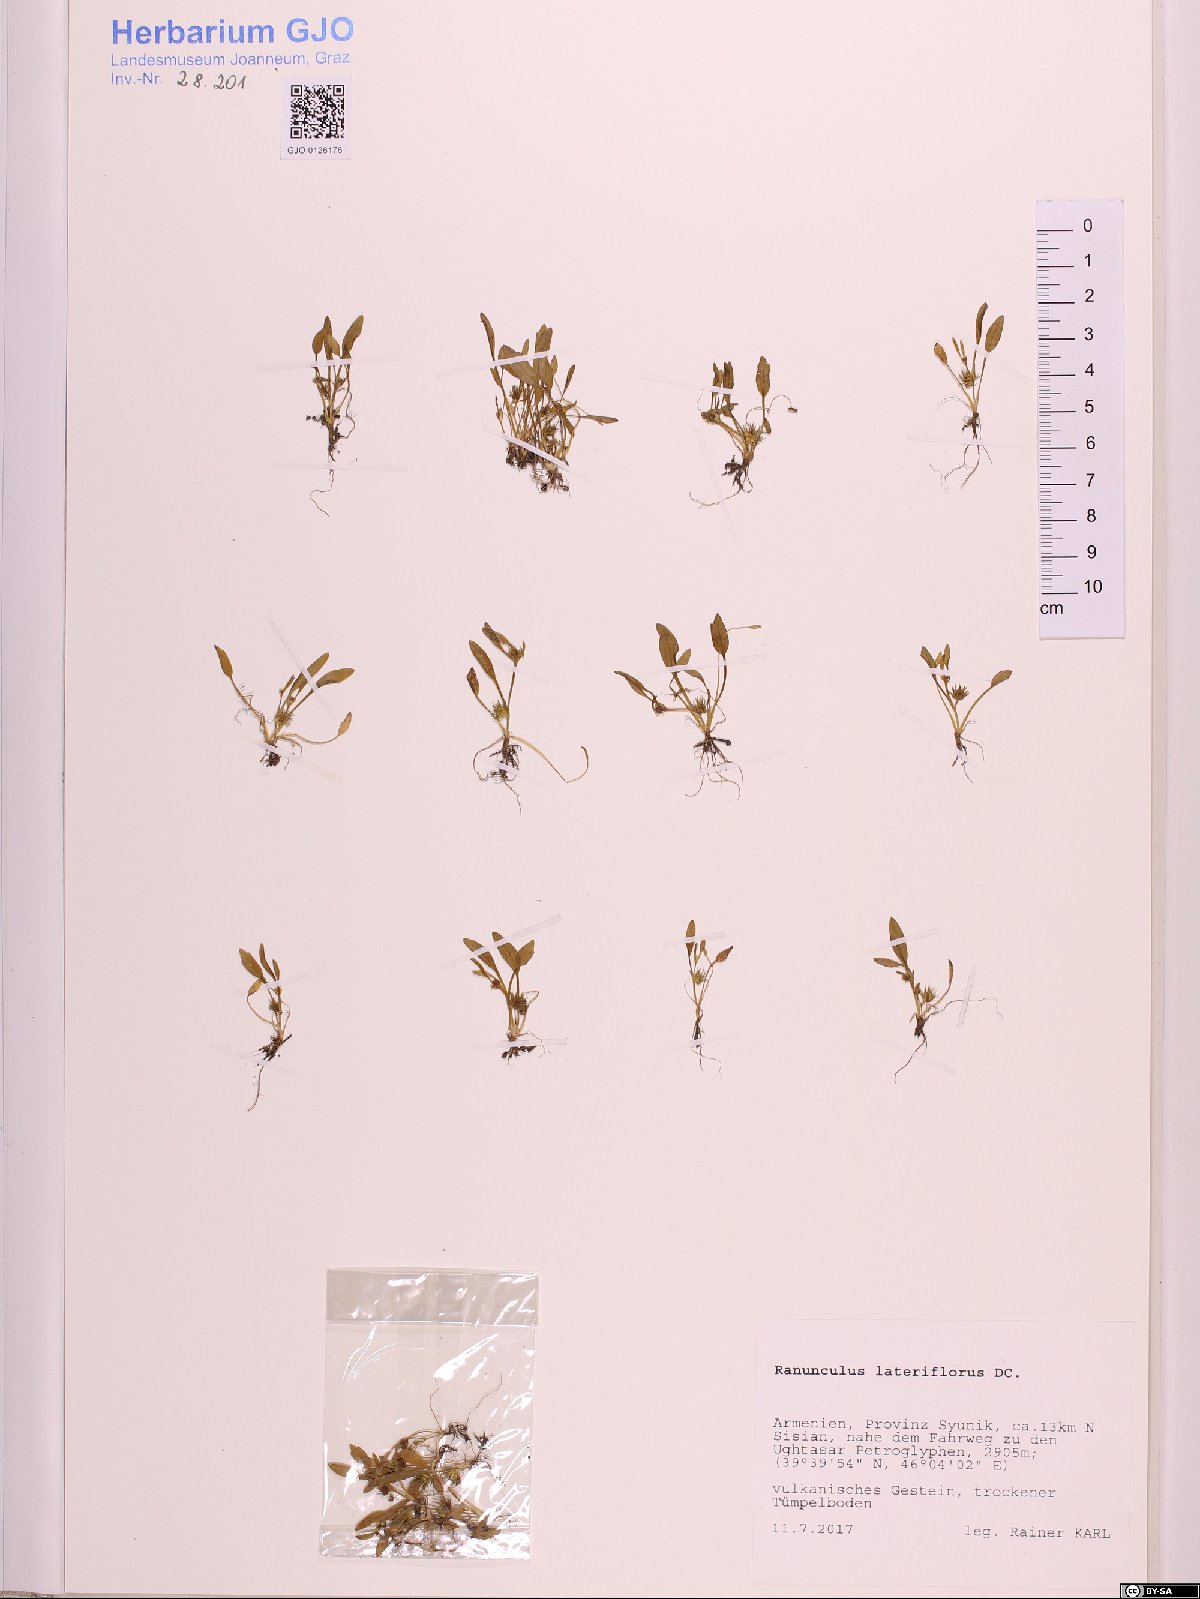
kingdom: Plantae
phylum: Tracheophyta
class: Magnoliopsida
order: Ranunculales
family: Ranunculaceae
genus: Ranunculus
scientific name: Ranunculus lateriflorus
